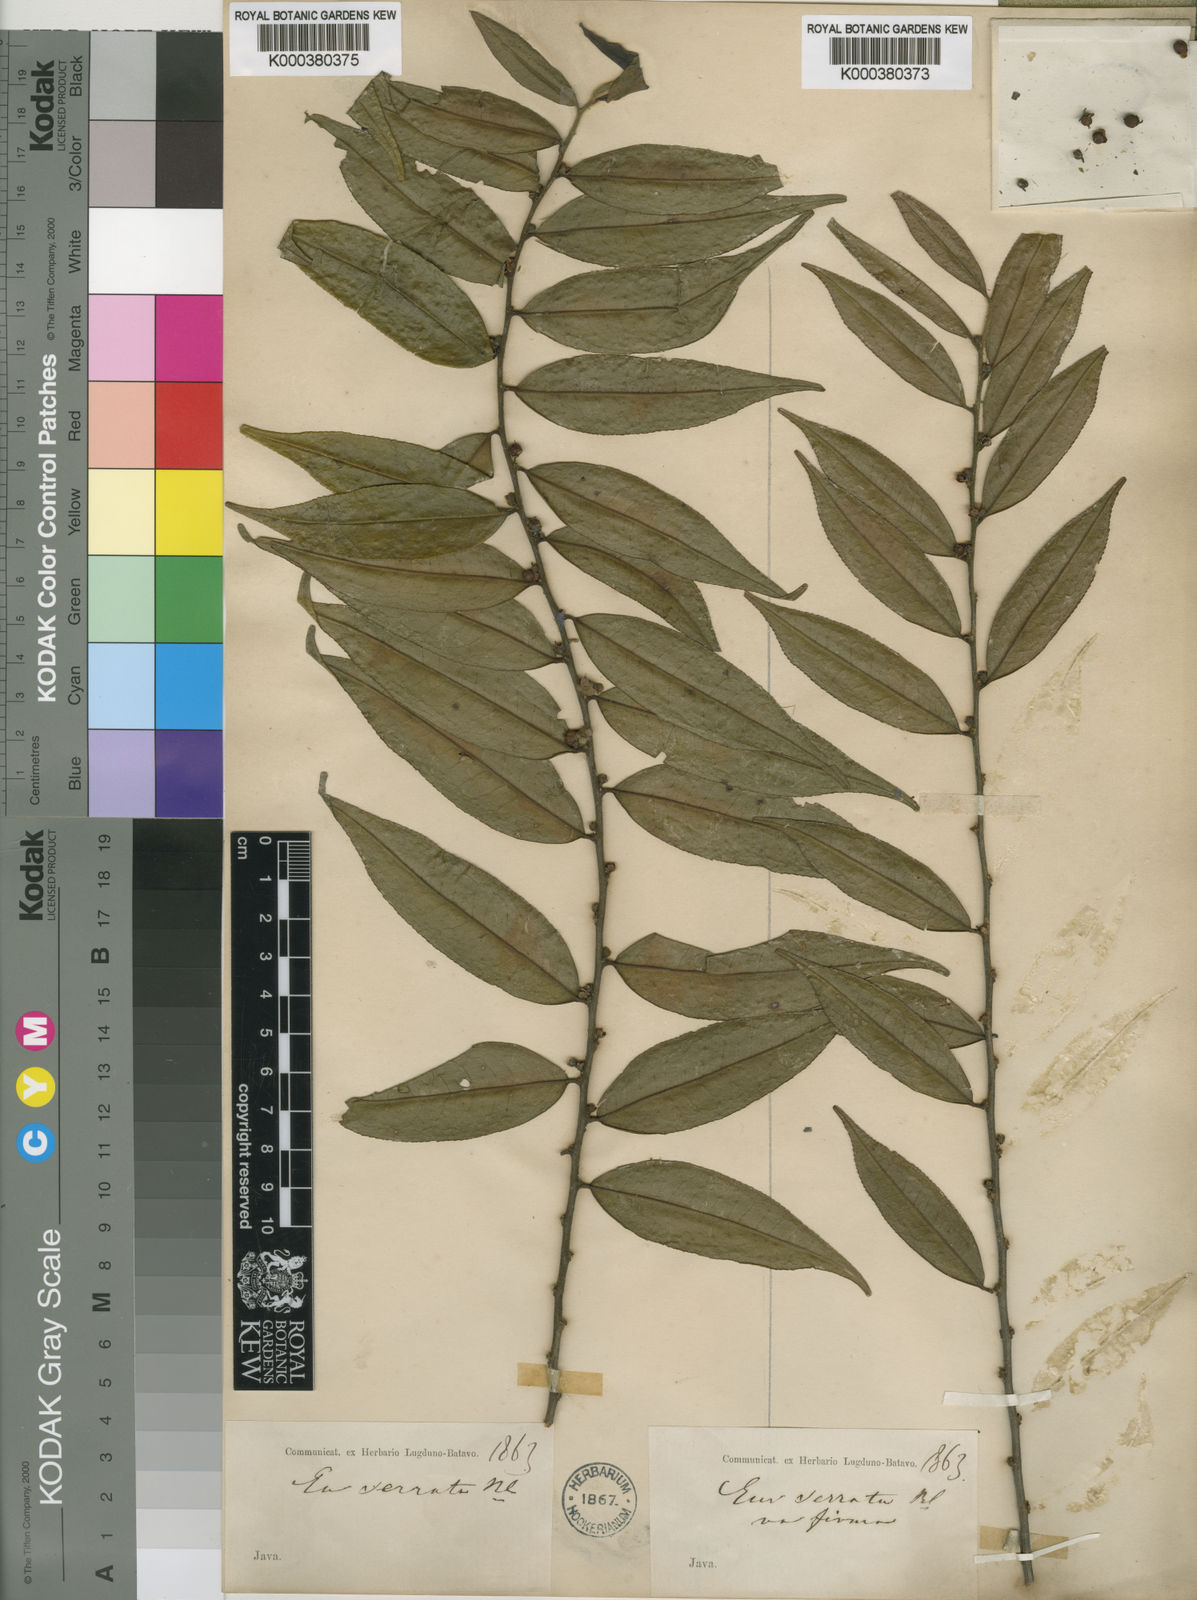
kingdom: Plantae
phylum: Tracheophyta
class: Magnoliopsida
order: Ericales
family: Pentaphylacaceae
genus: Eurya
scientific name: Eurya acuminata
